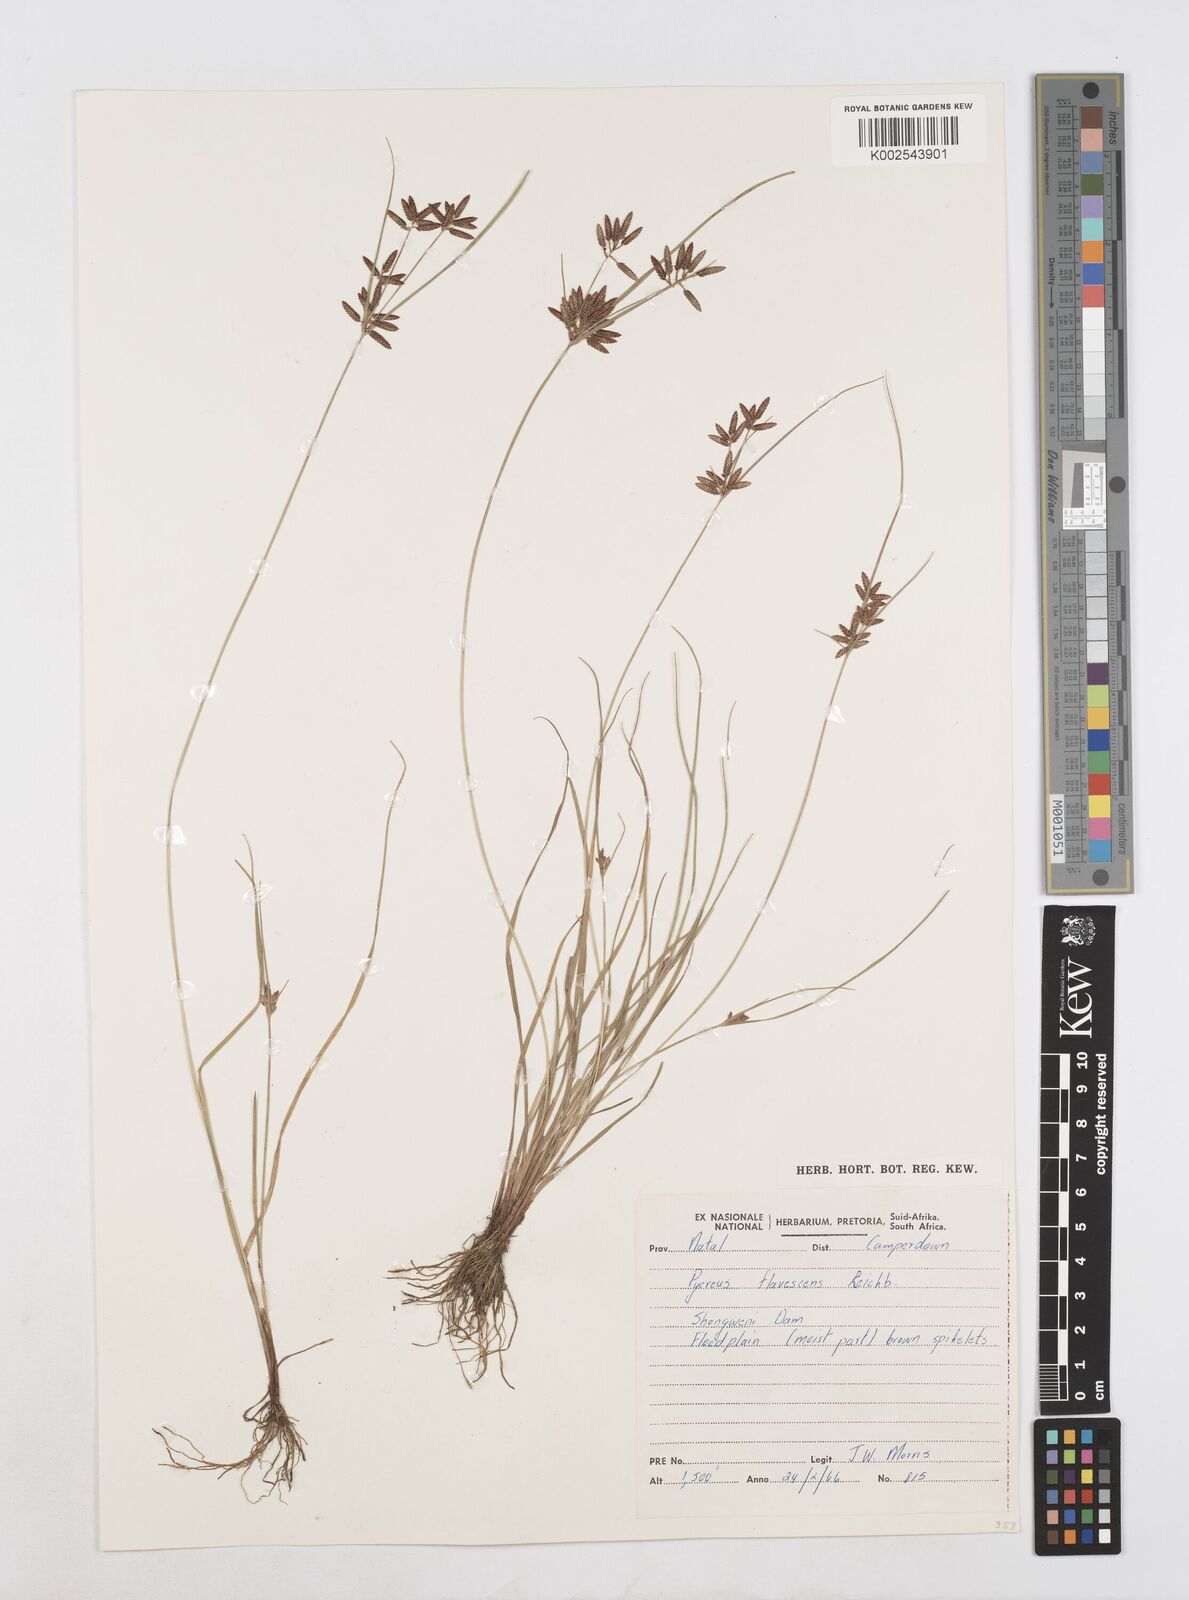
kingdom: Plantae
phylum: Tracheophyta
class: Liliopsida
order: Poales
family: Cyperaceae
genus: Cyperus
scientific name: Cyperus flavescens
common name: Yellow galingale
